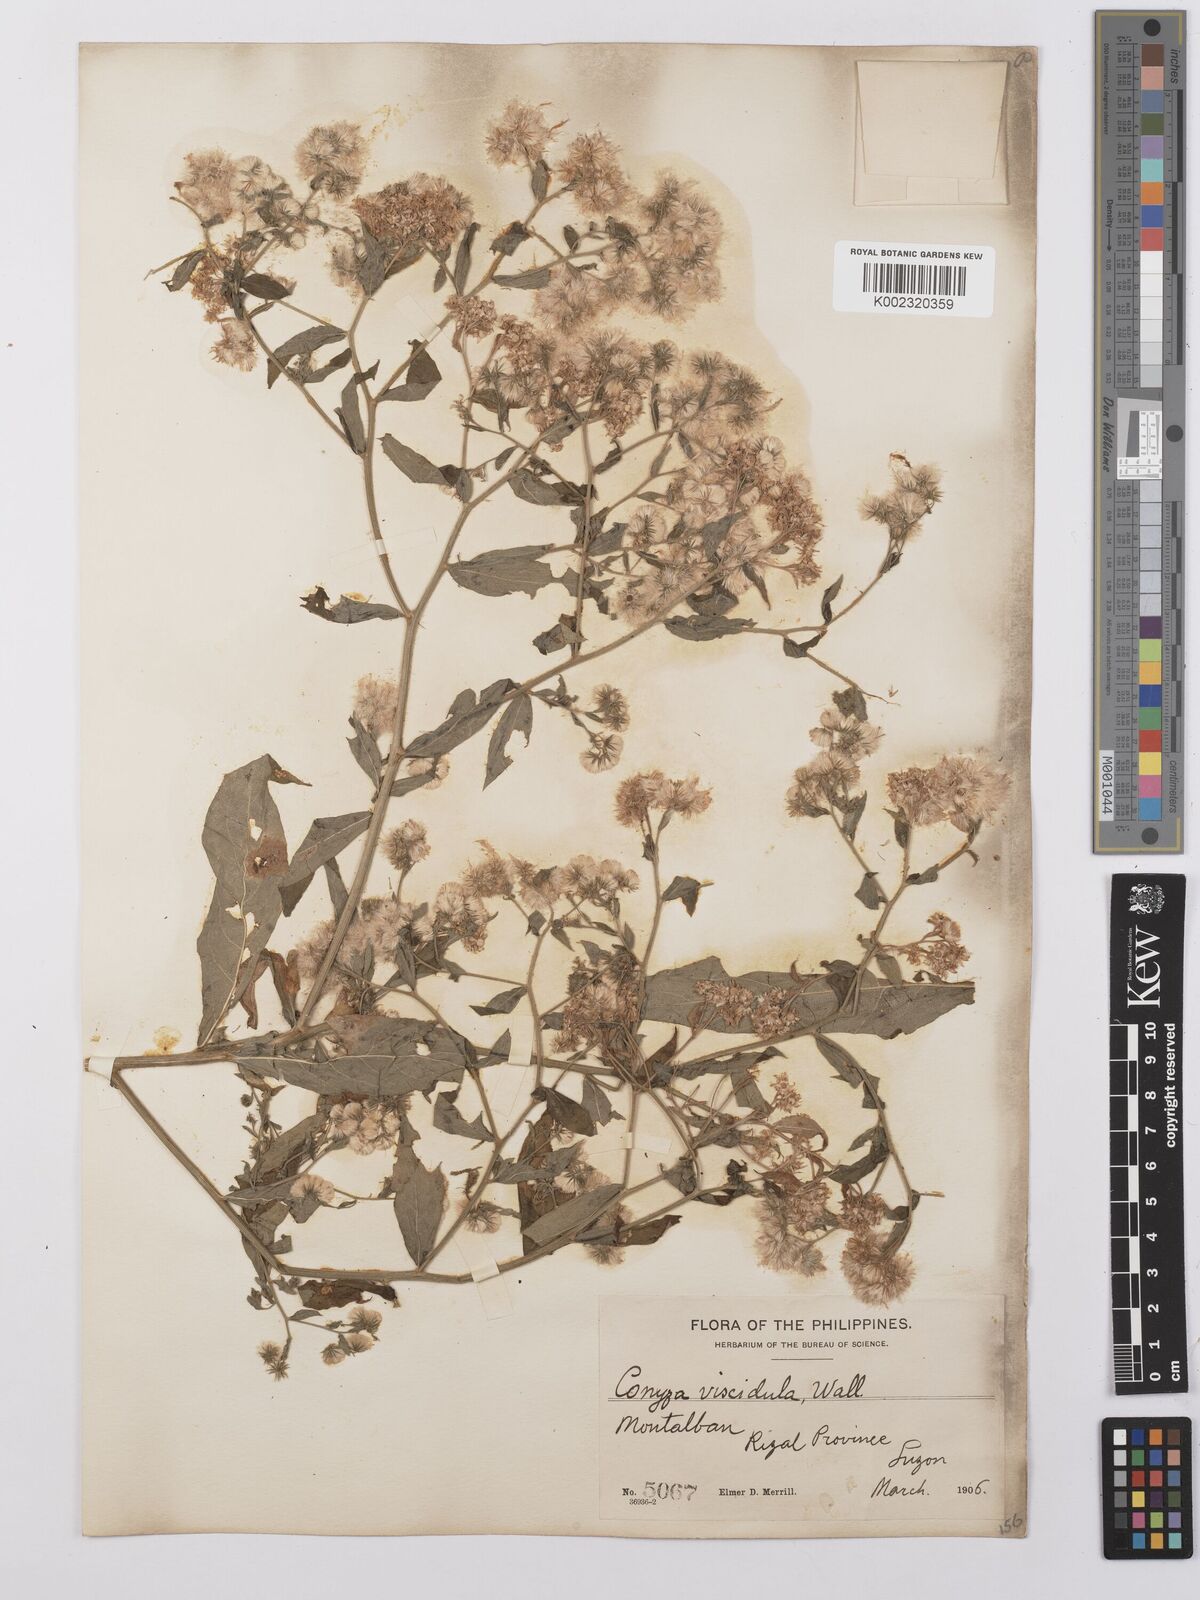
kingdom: Plantae
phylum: Tracheophyta
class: Magnoliopsida
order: Asterales
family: Asteraceae
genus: Eschenbachia
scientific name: Eschenbachia leucantha
